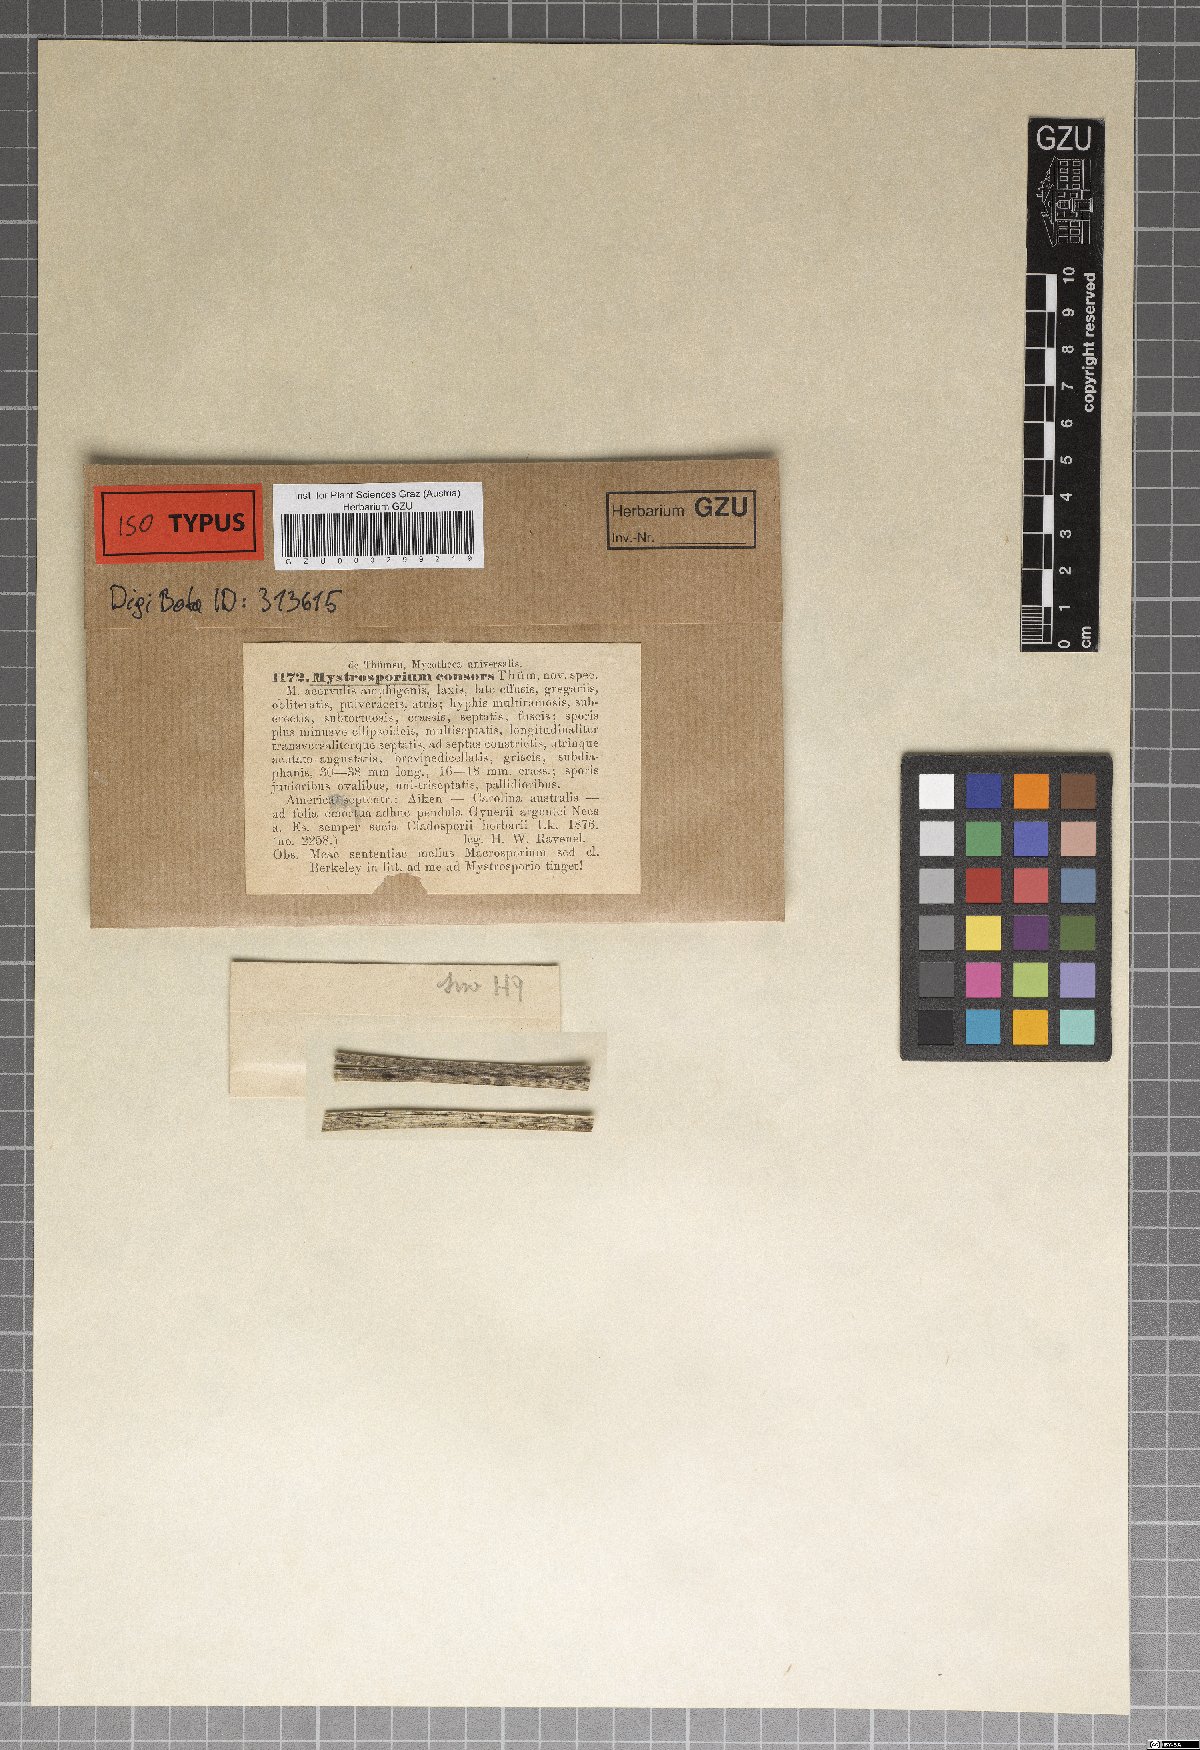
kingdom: Fungi
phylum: Ascomycota
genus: Mystrosporium
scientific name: Mystrosporium
